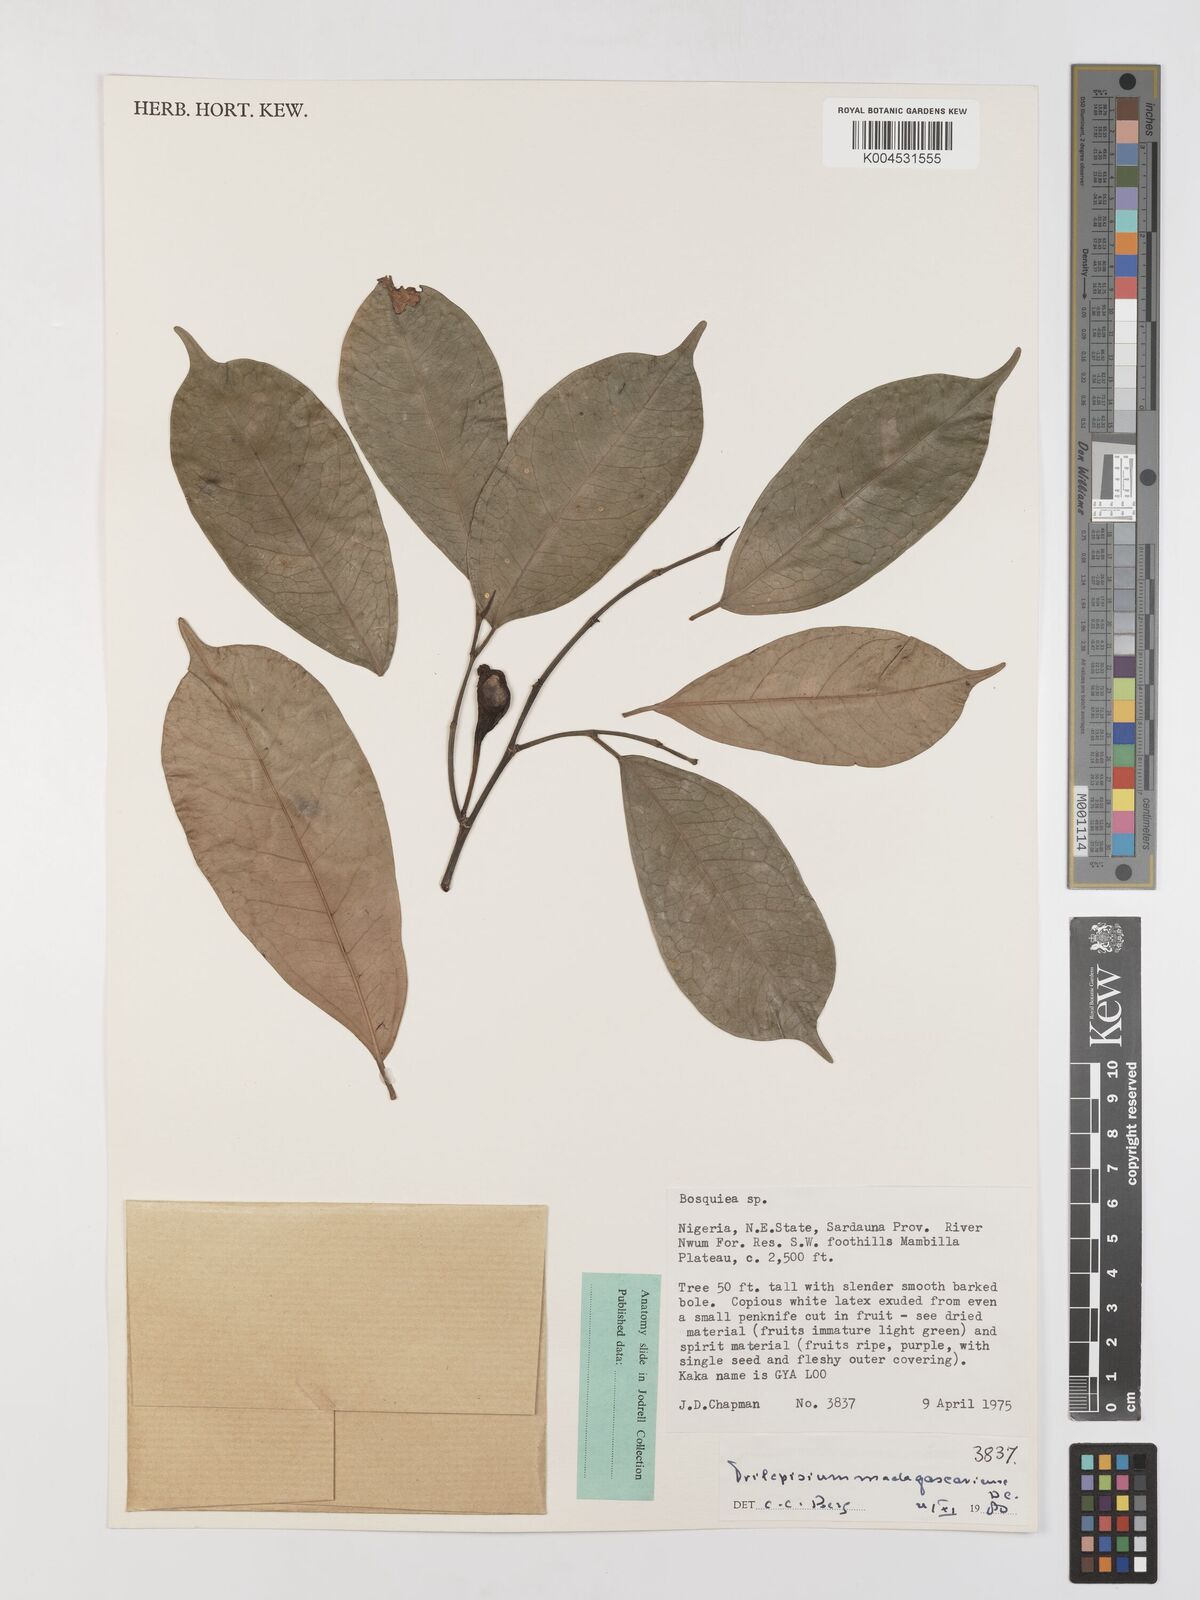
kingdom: Plantae
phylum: Tracheophyta
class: Magnoliopsida
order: Rosales
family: Moraceae
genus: Trilepisium
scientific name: Trilepisium madagascariense
